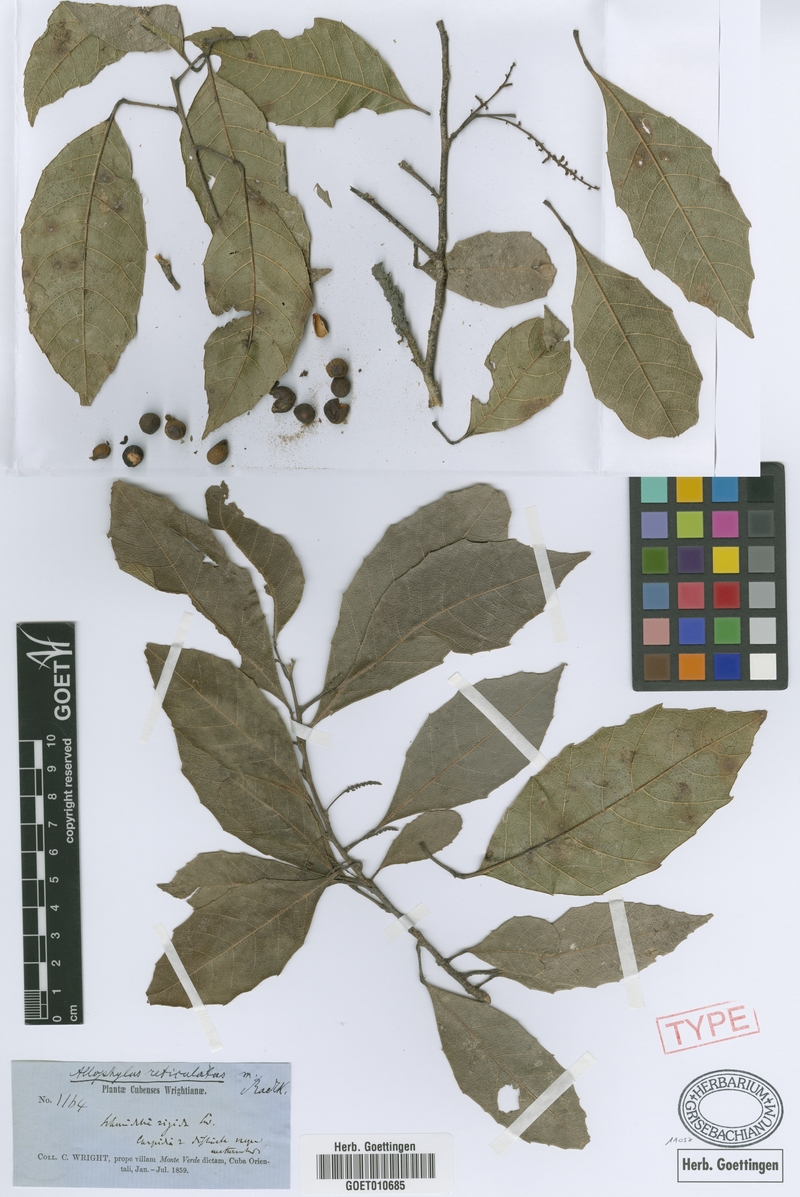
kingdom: Plantae
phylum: Tracheophyta
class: Magnoliopsida
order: Sapindales
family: Sapindaceae
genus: Allophylus
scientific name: Allophylus reticulatus
